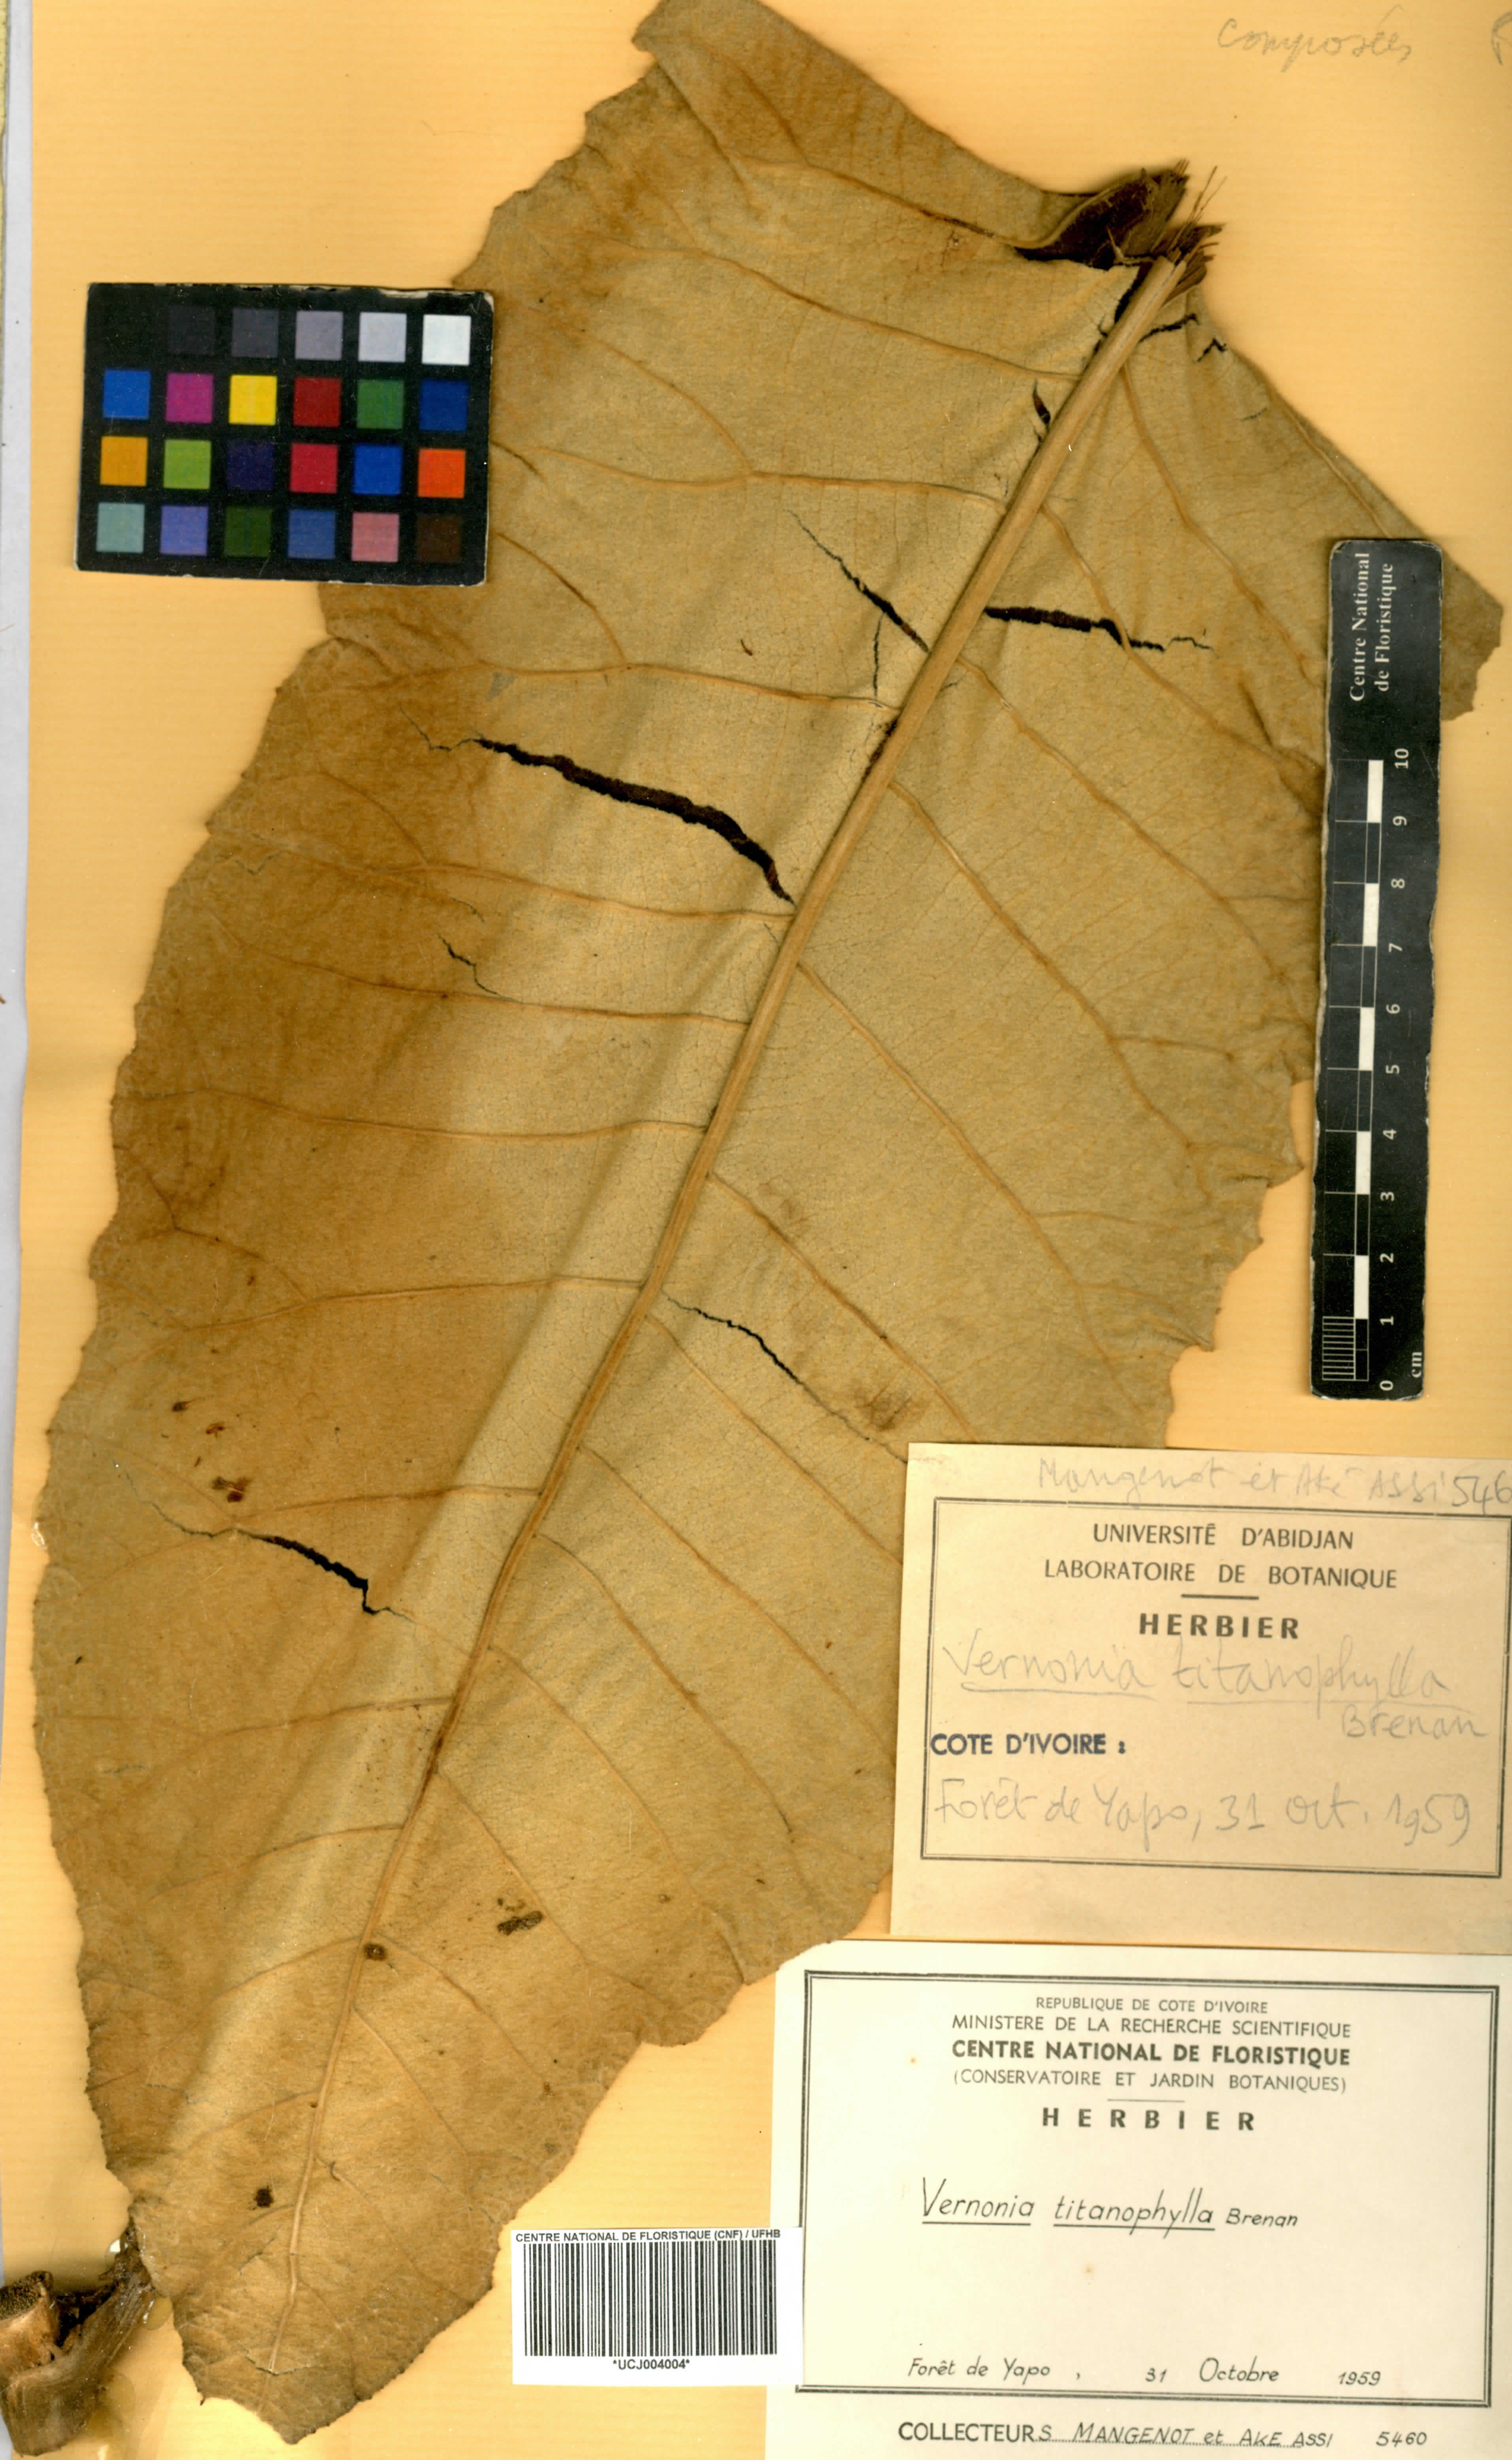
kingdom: Plantae
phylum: Tracheophyta
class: Magnoliopsida
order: Asterales
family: Asteraceae
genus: Brenandendron
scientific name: Brenandendron titanophyllum
